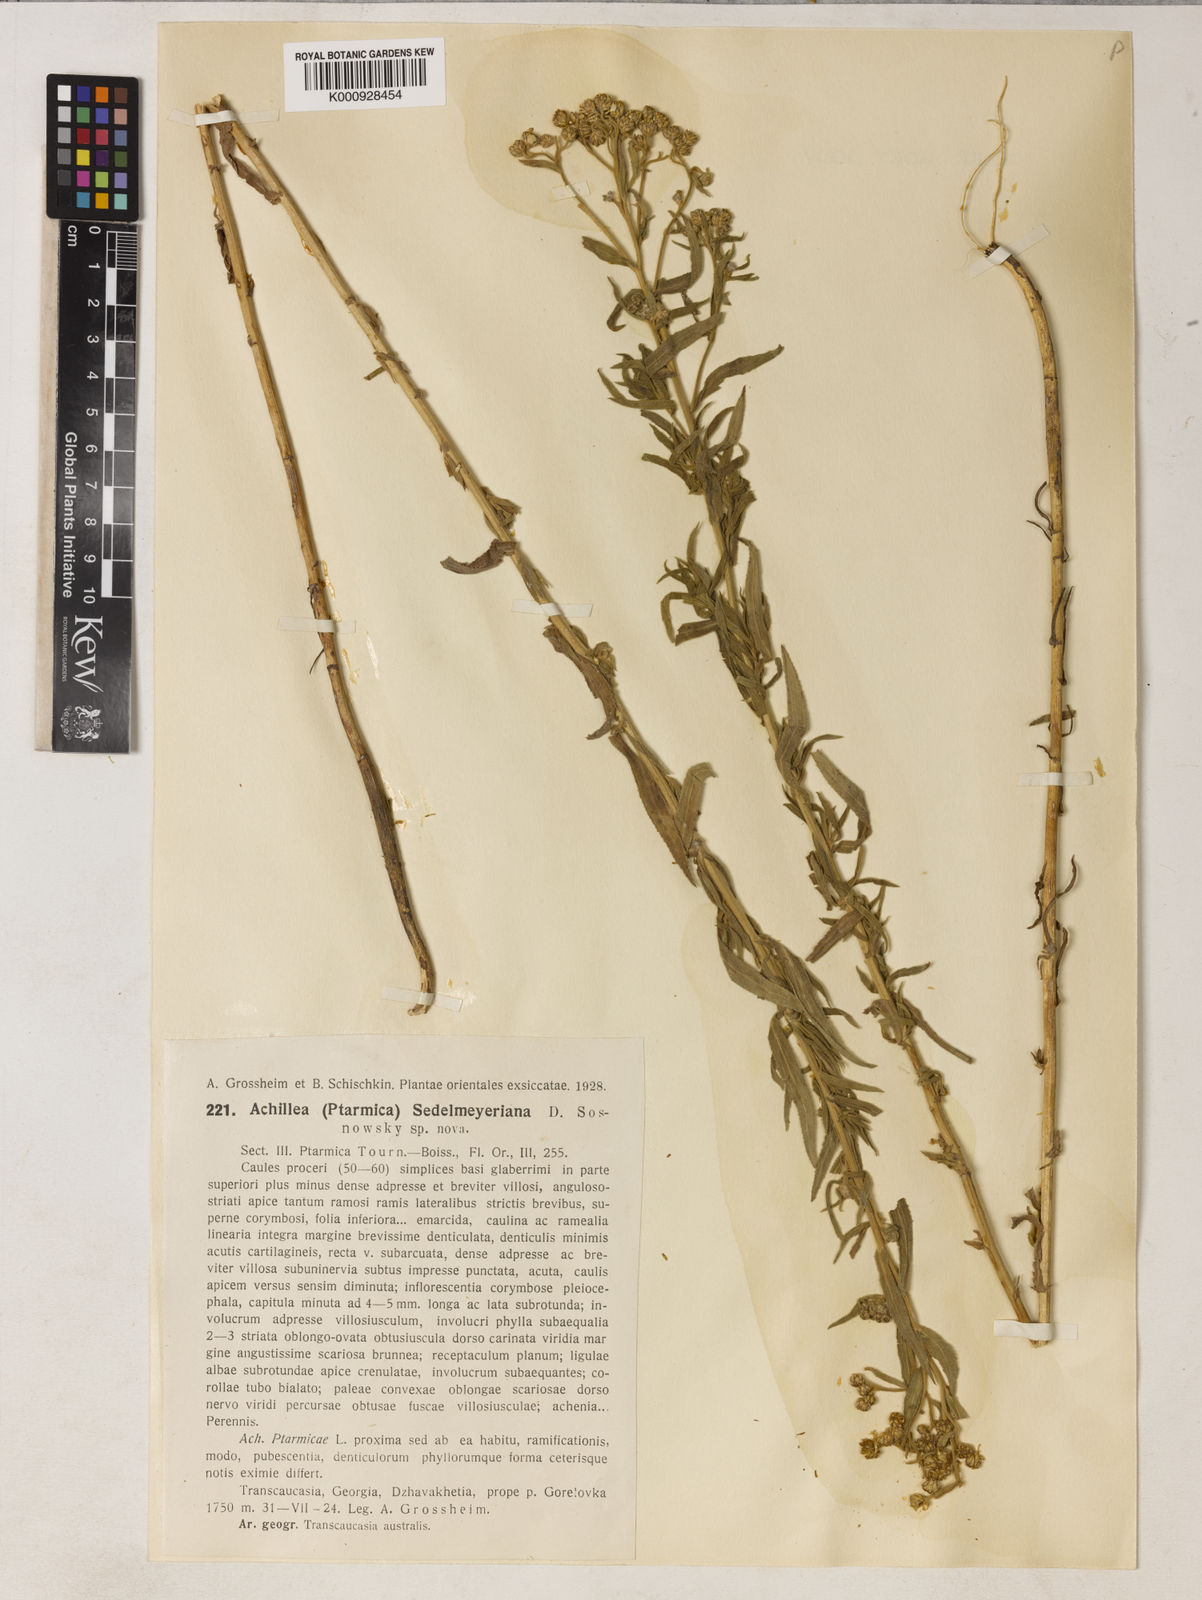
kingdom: Plantae
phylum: Tracheophyta
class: Magnoliopsida
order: Asterales
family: Asteraceae
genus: Achillea
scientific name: Achillea
